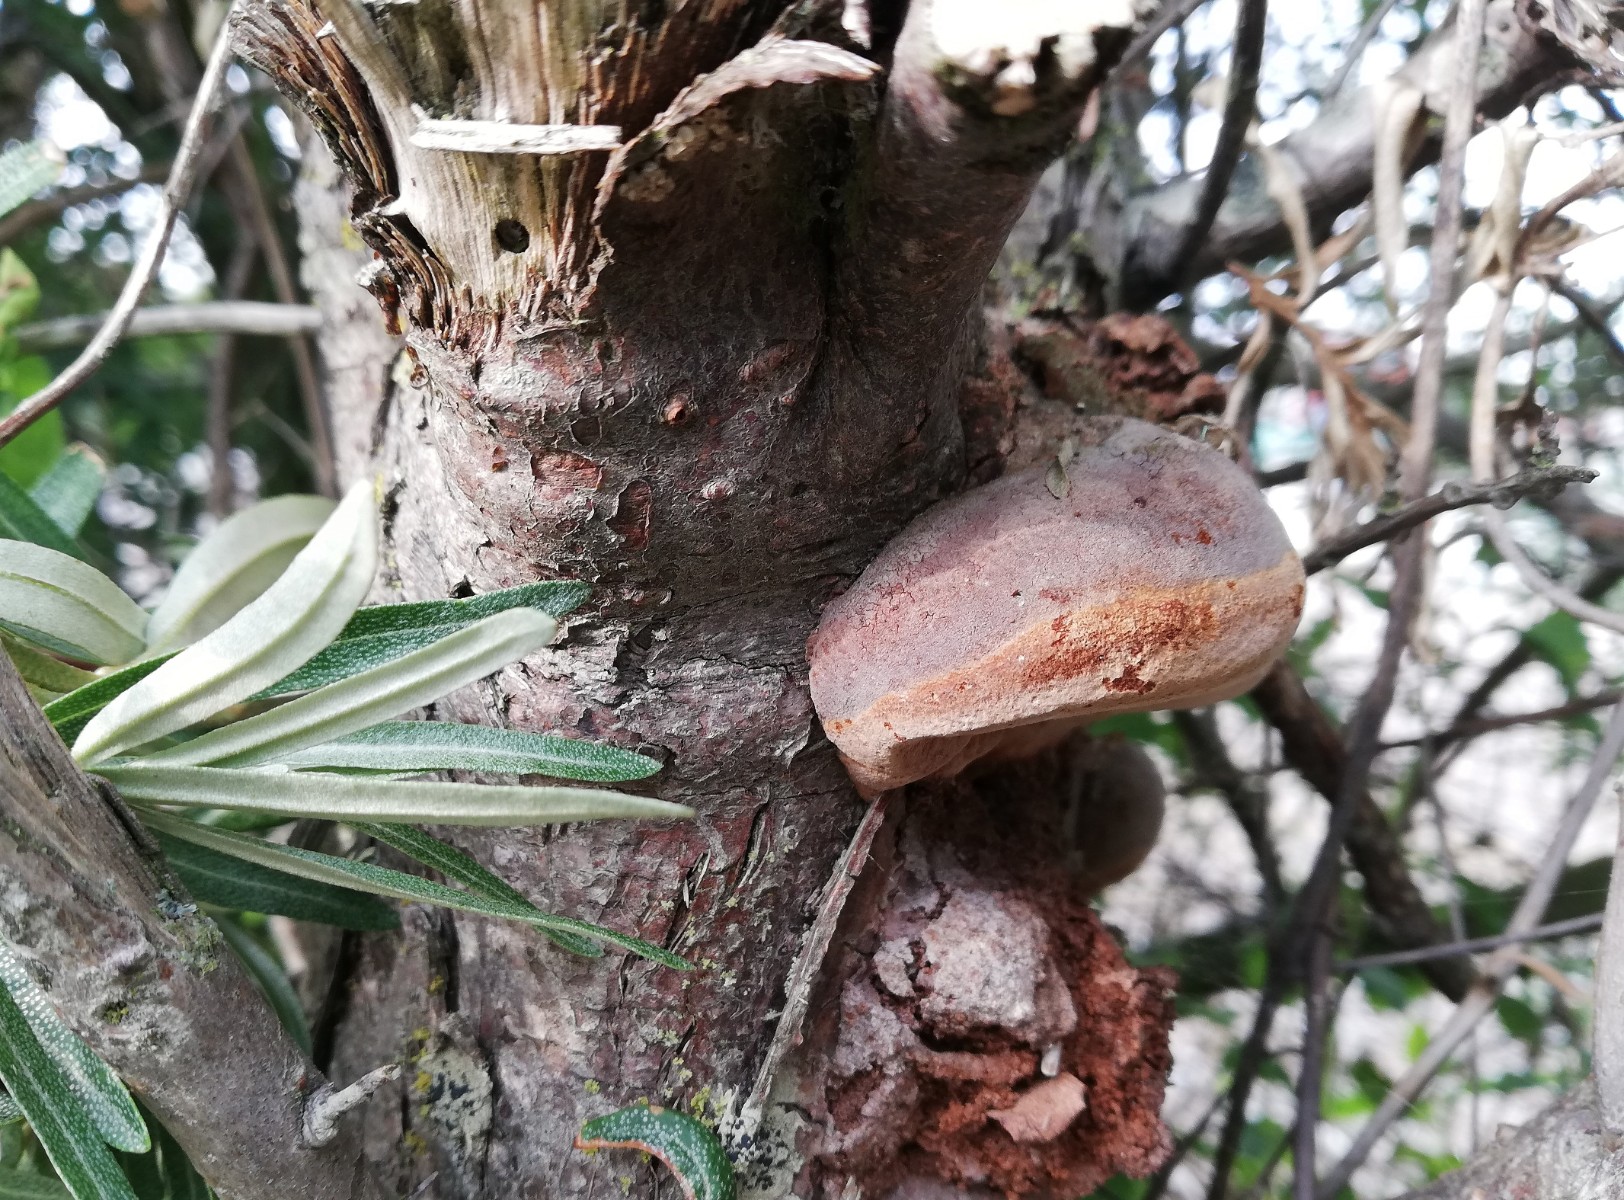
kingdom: Fungi
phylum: Basidiomycota
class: Agaricomycetes
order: Hymenochaetales
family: Hymenochaetaceae
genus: Fomitiporia
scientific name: Fomitiporia hippophaeicola
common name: havtorn-ildporesvamp
